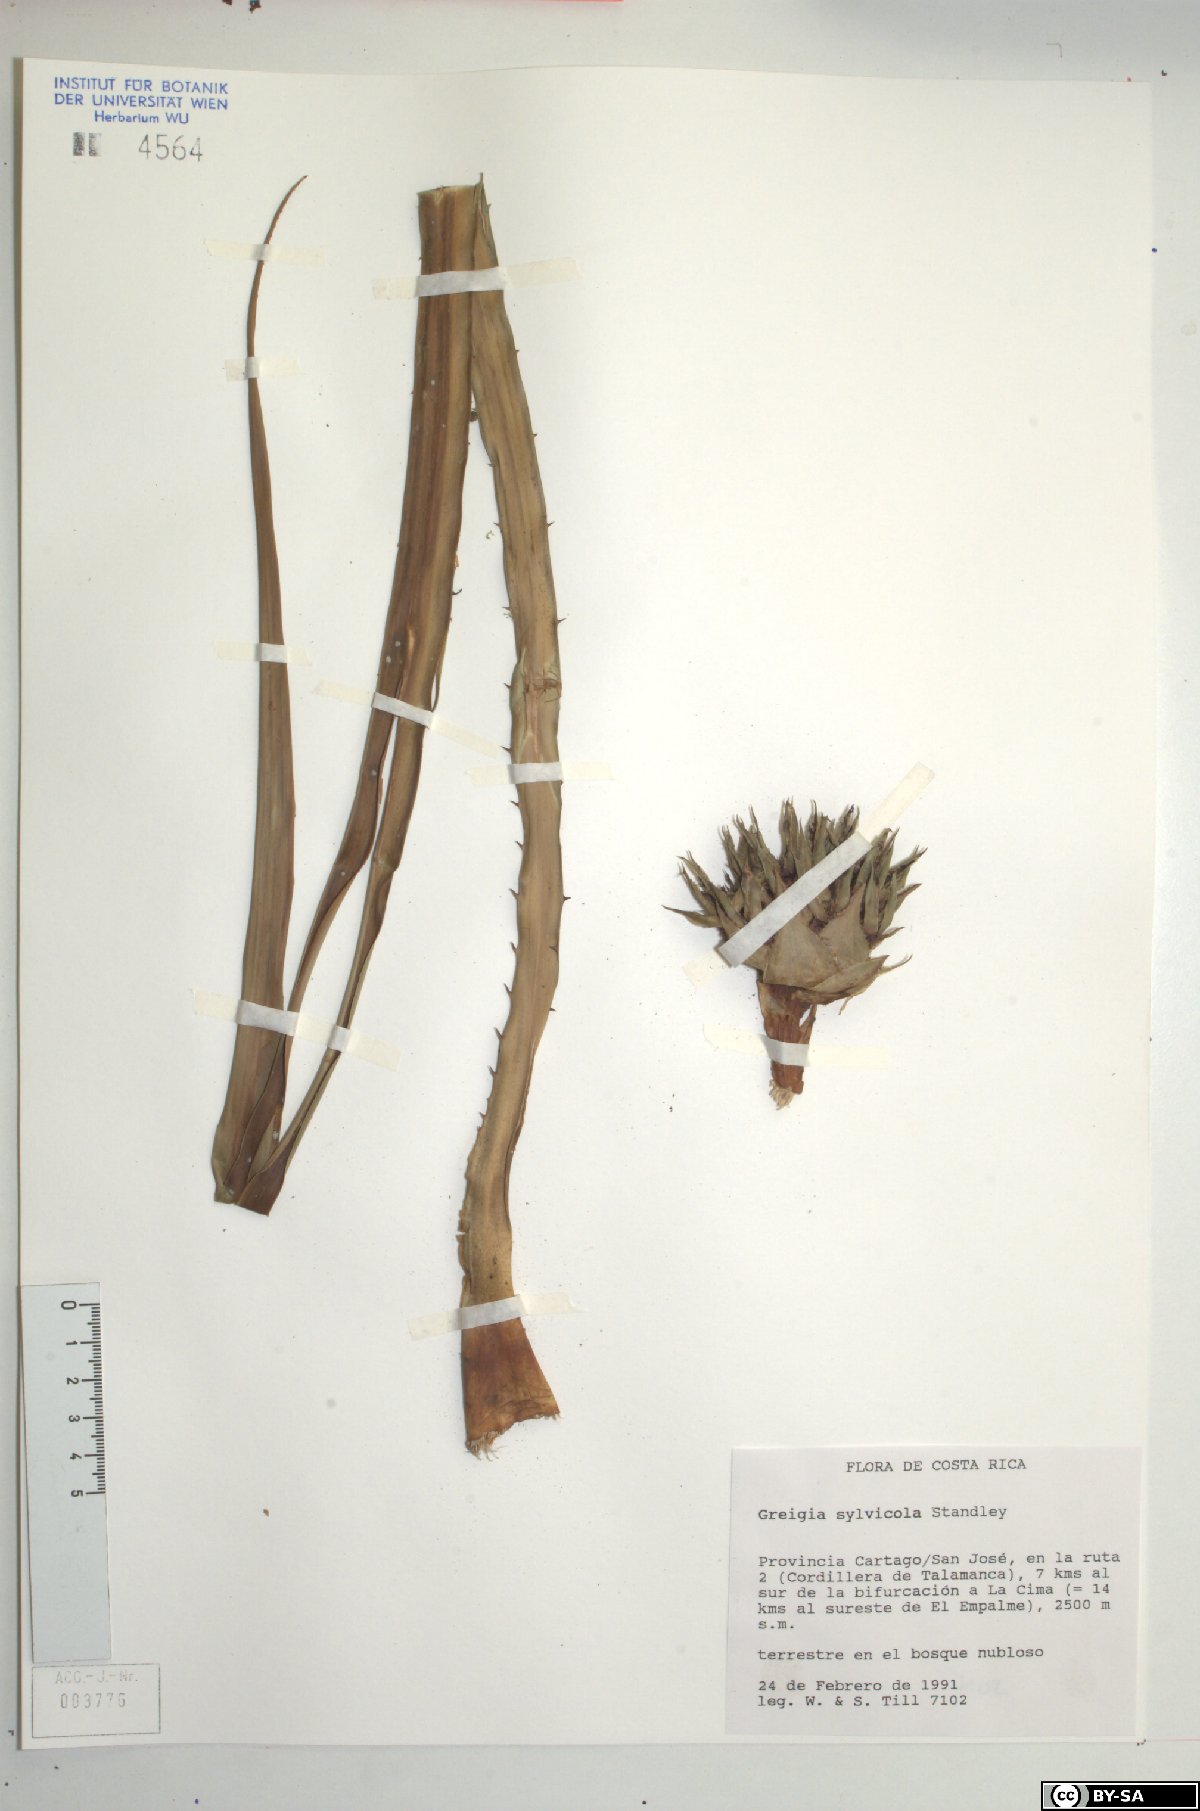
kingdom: Plantae
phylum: Tracheophyta
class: Liliopsida
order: Poales
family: Bromeliaceae
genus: Greigia
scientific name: Greigia sylvicola
